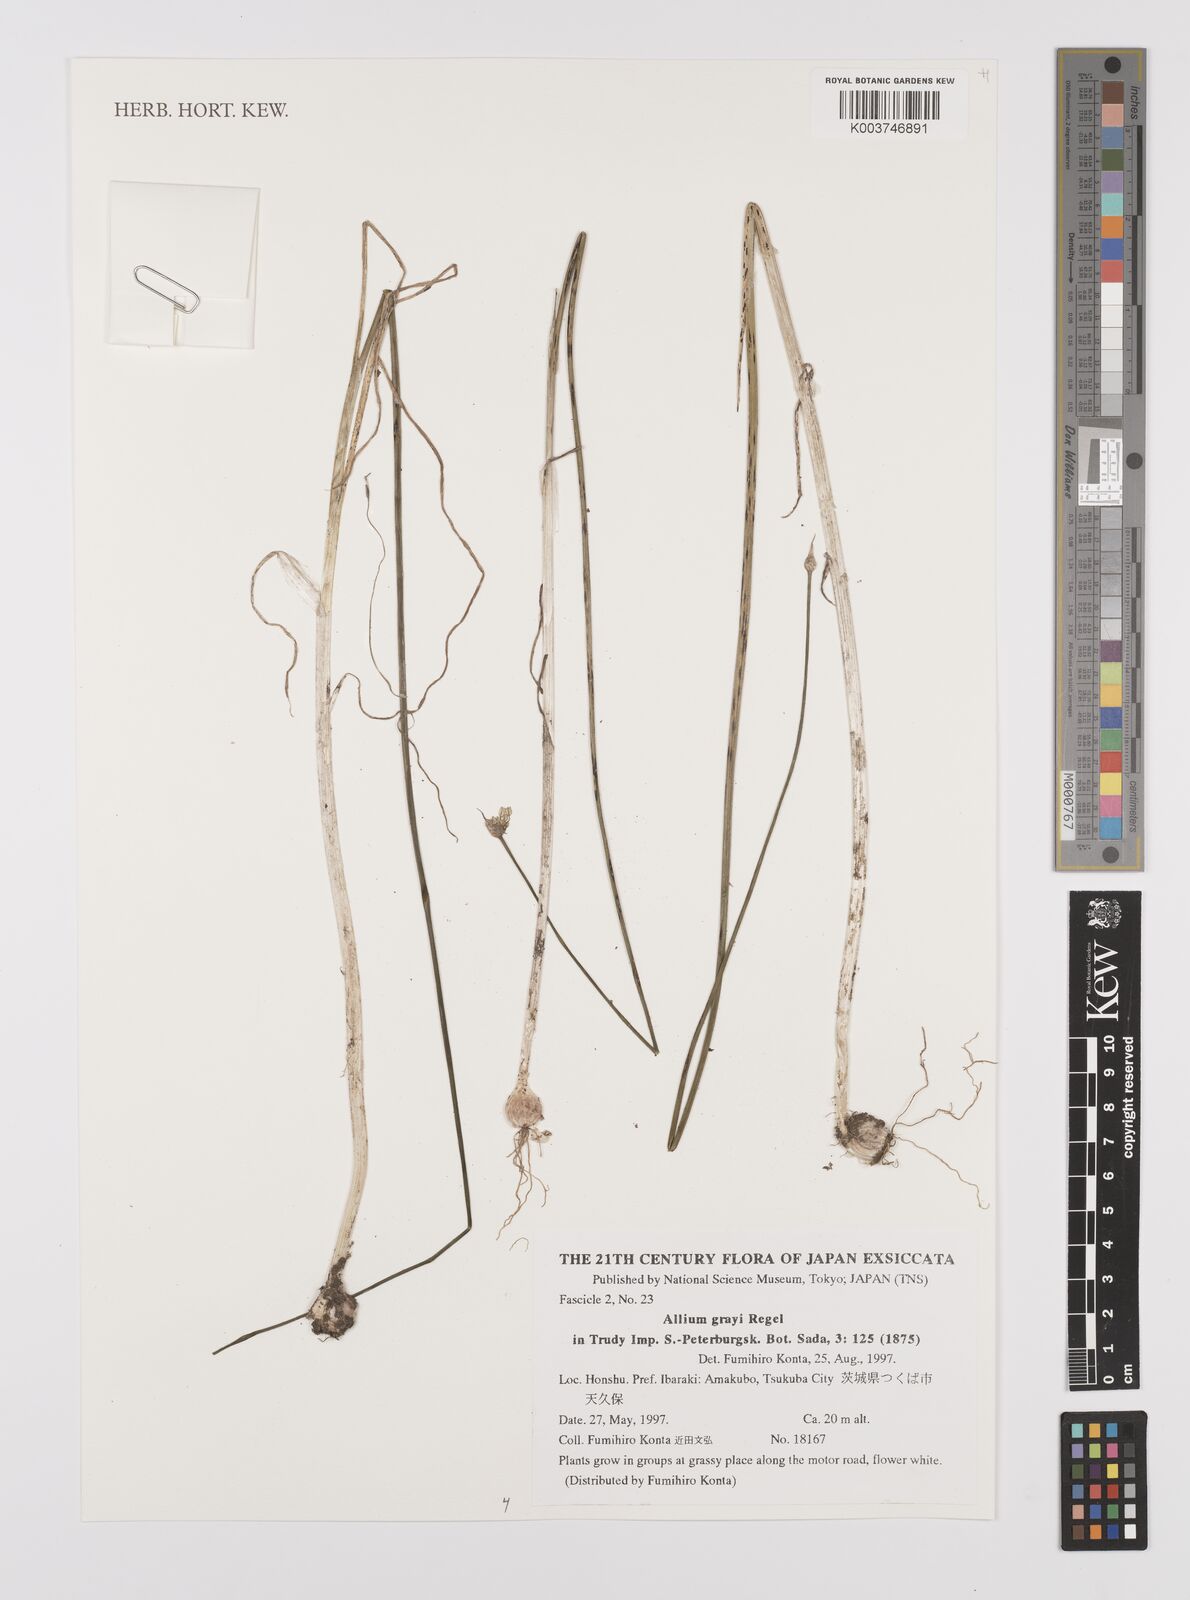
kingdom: Plantae
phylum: Tracheophyta
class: Liliopsida
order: Asparagales
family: Amaryllidaceae
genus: Allium
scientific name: Allium macrostemon
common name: Chinese garlic
